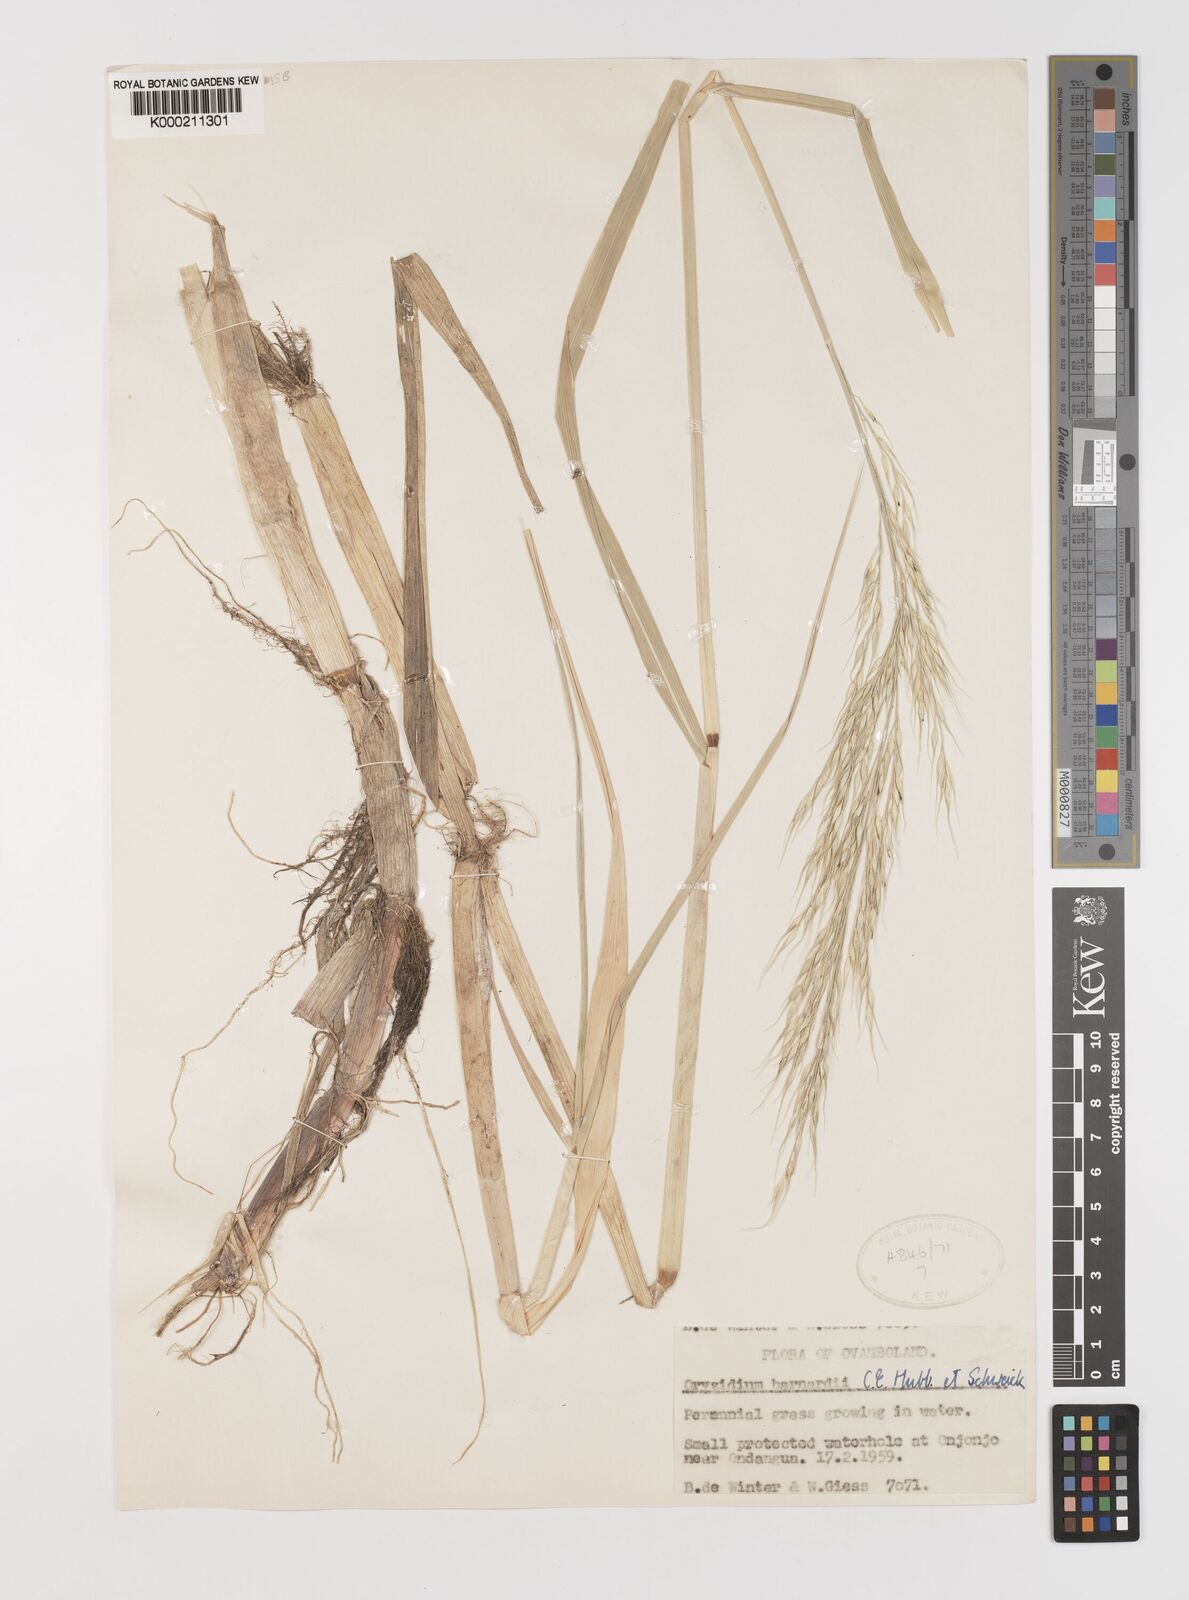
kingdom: Plantae
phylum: Tracheophyta
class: Liliopsida
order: Poales
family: Poaceae
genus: Oryzidium
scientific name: Oryzidium barnardii
